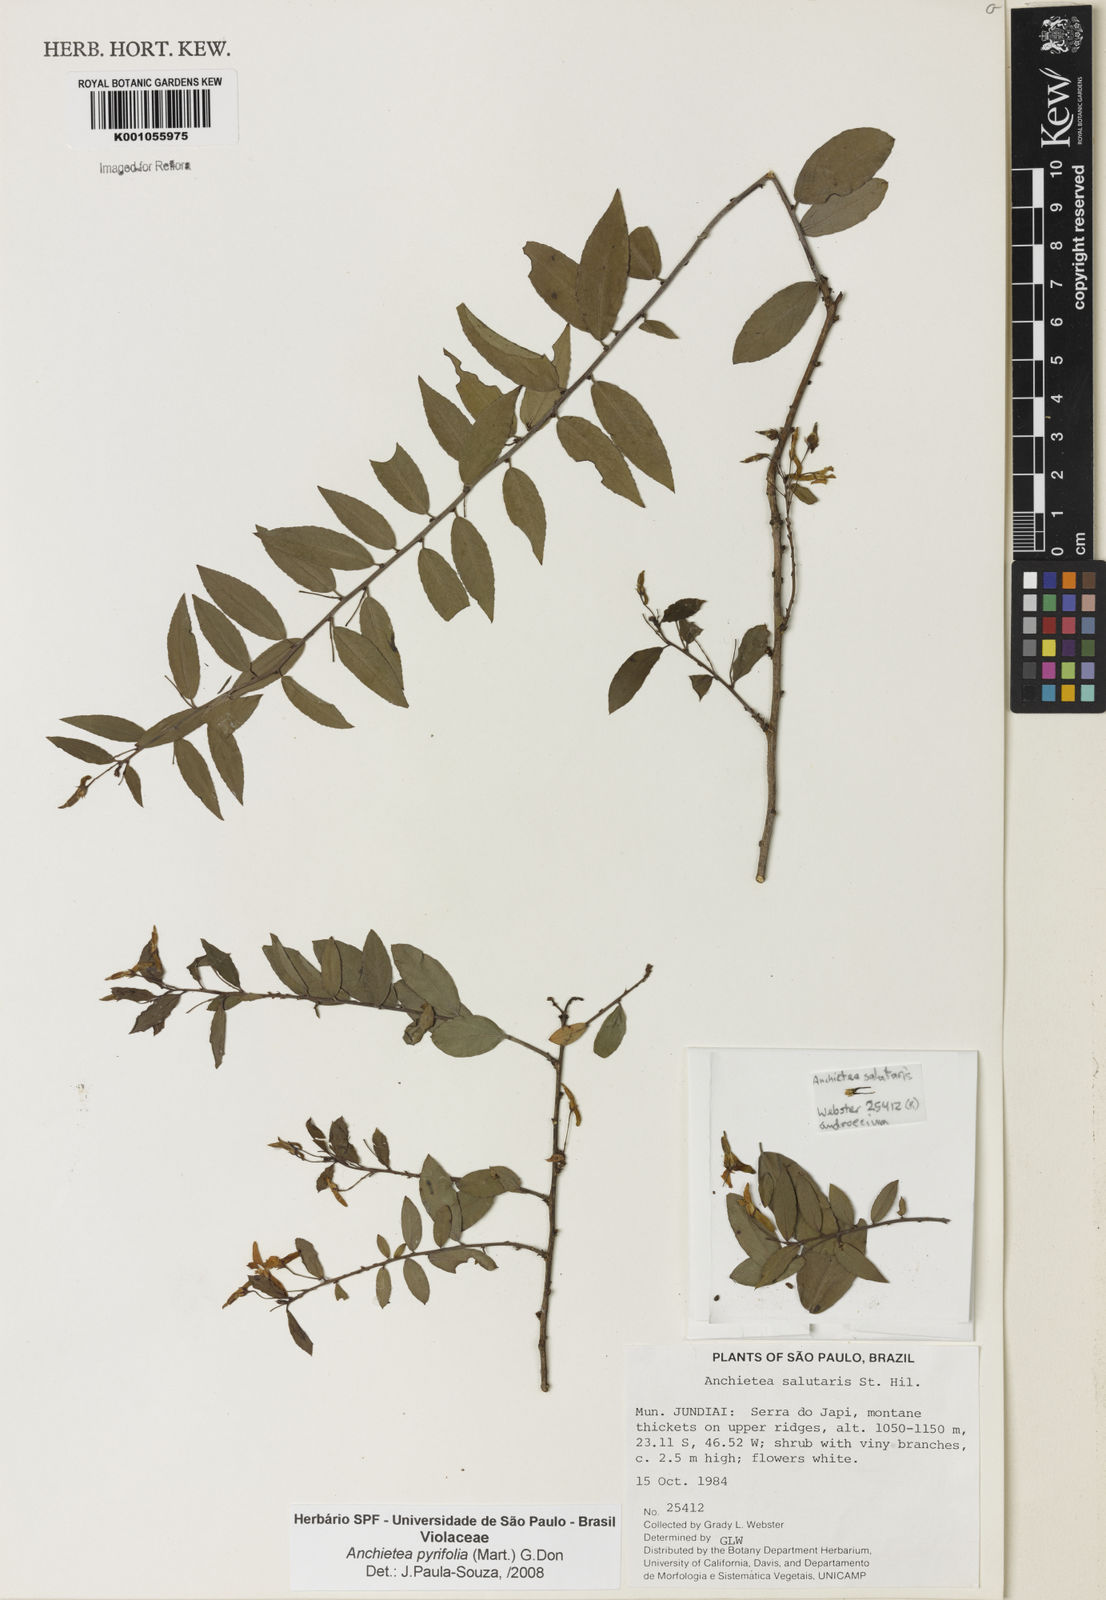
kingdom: Plantae
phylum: Tracheophyta
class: Magnoliopsida
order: Malpighiales
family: Violaceae
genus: Anchietea
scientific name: Anchietea pyrifolia
